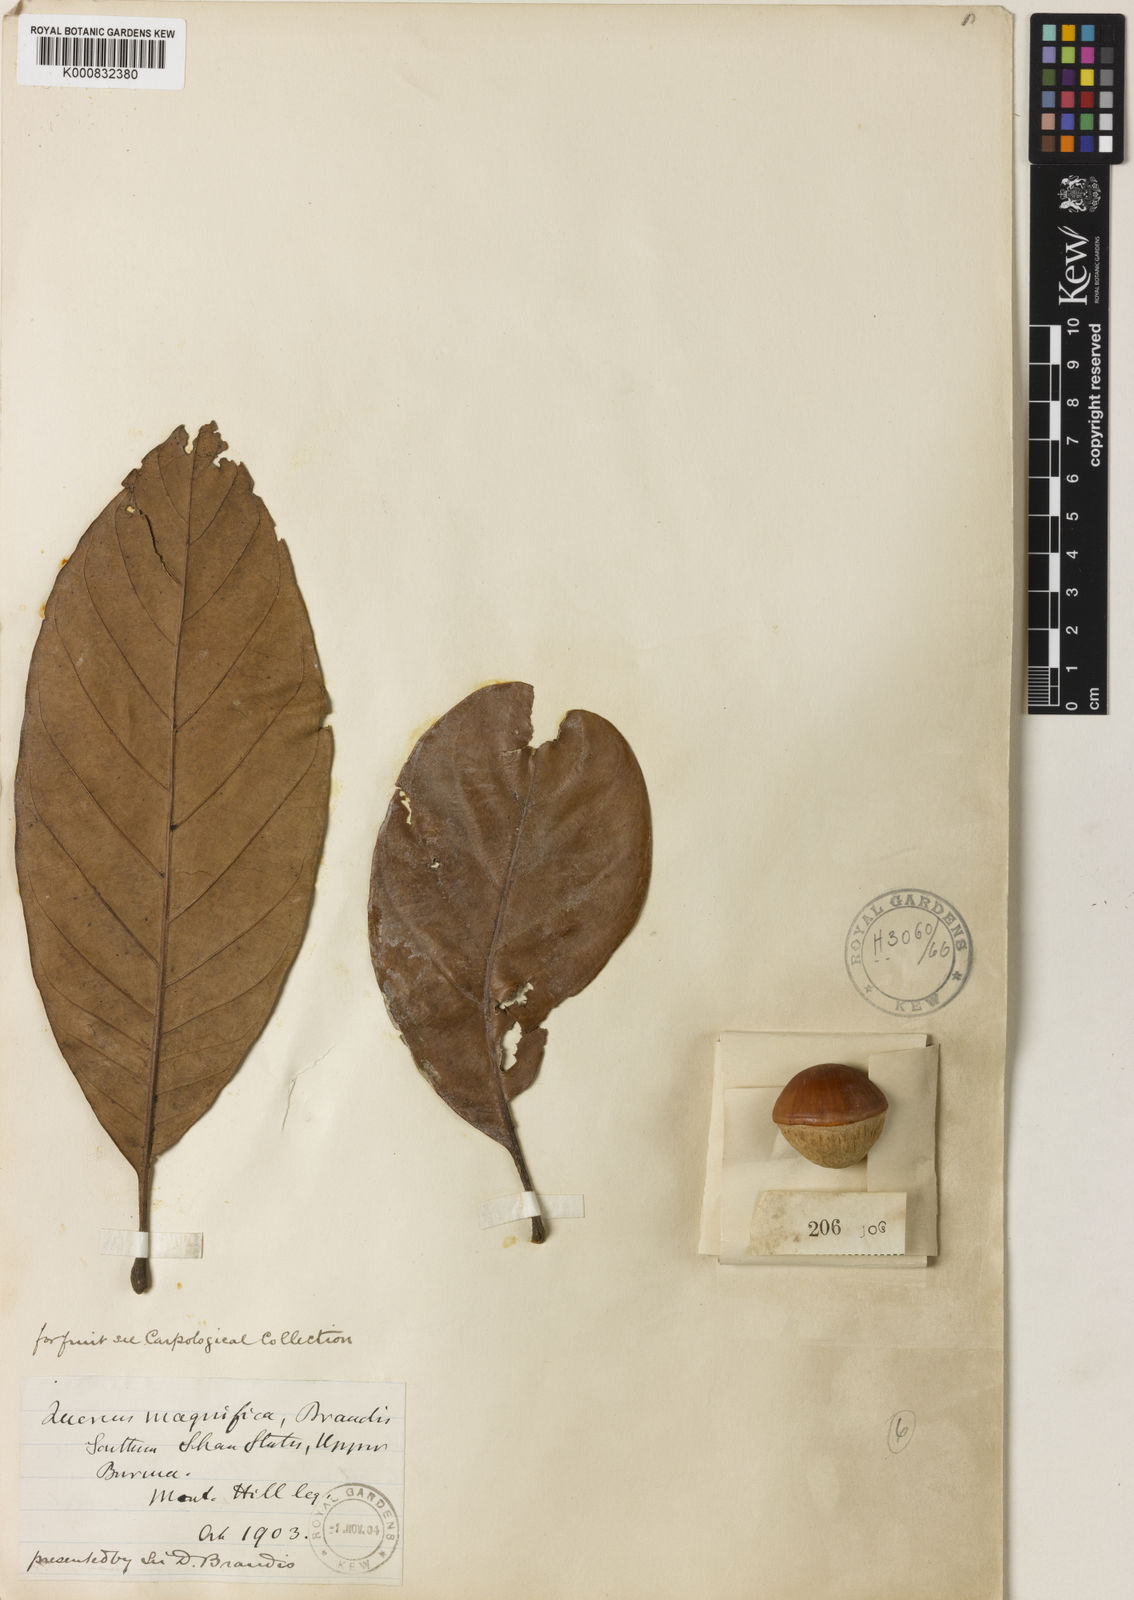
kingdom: Plantae
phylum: Tracheophyta
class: Magnoliopsida
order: Fagales
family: Fagaceae
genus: Lithocarpus
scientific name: Lithocarpus magnificus
